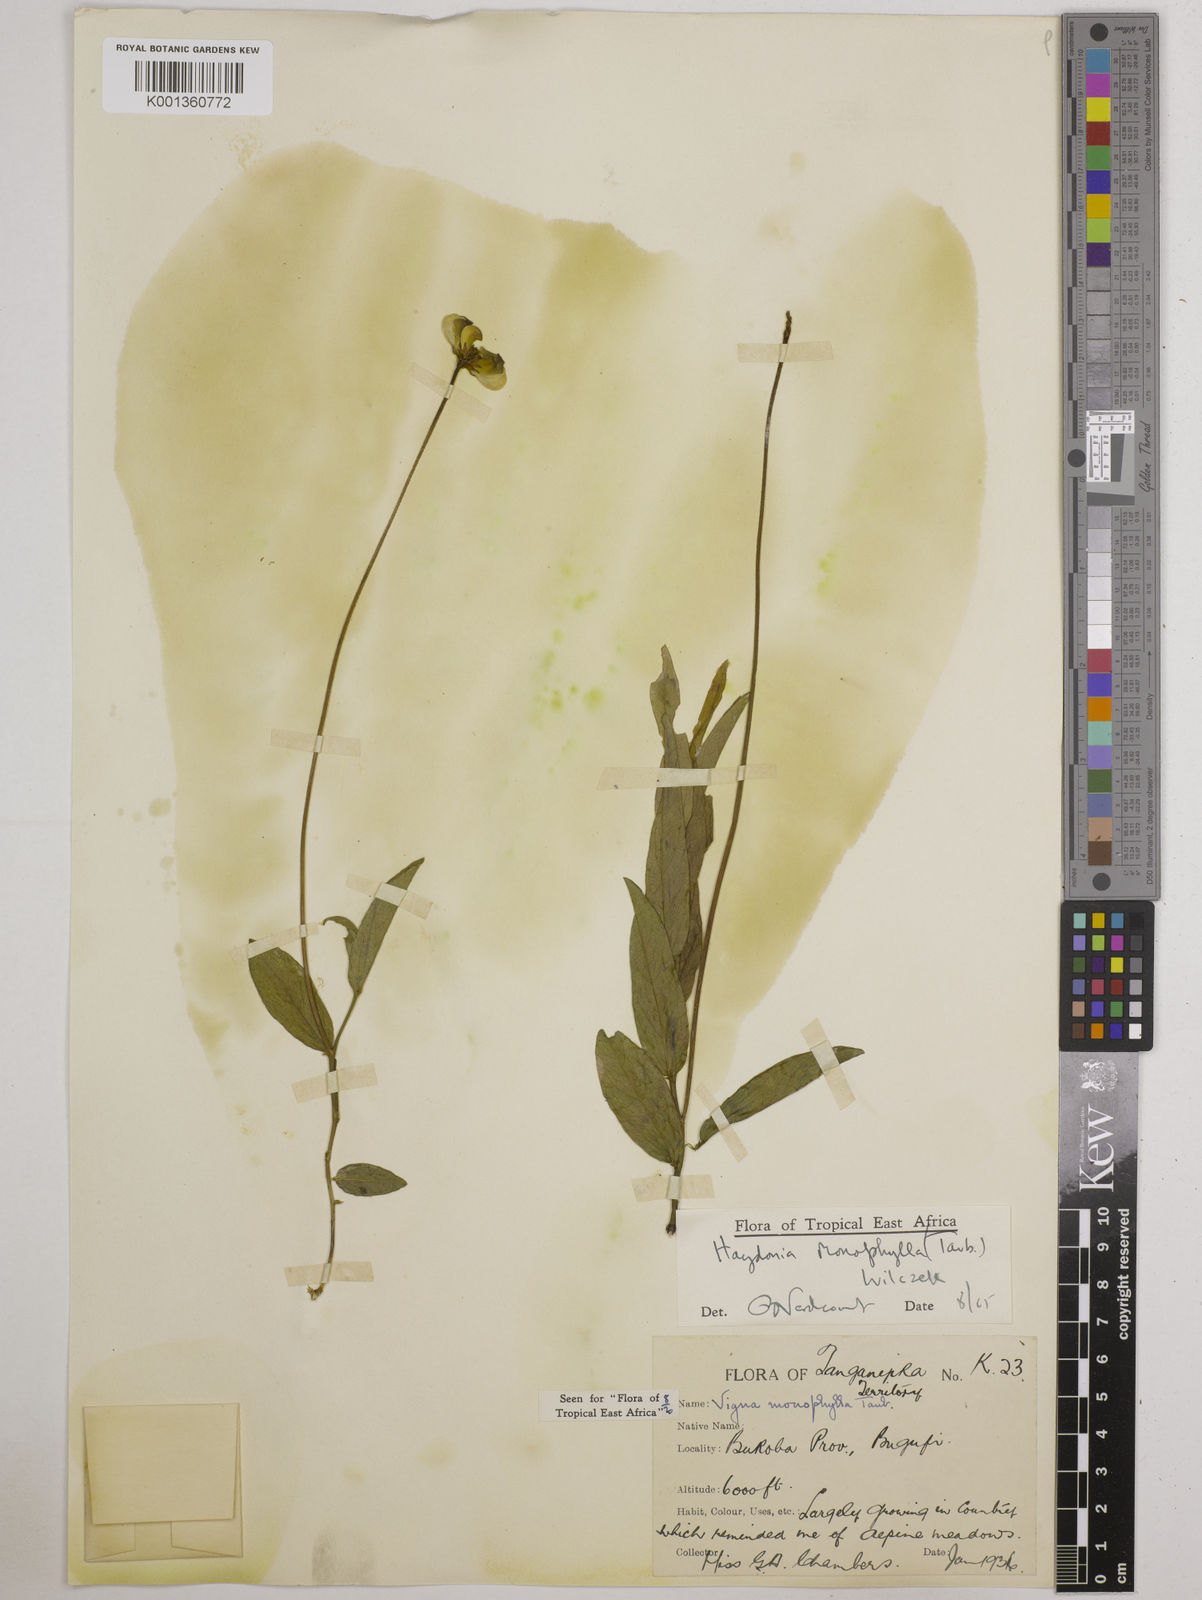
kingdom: Plantae
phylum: Tracheophyta
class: Magnoliopsida
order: Fabales
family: Fabaceae
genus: Vigna
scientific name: Vigna monophylla
